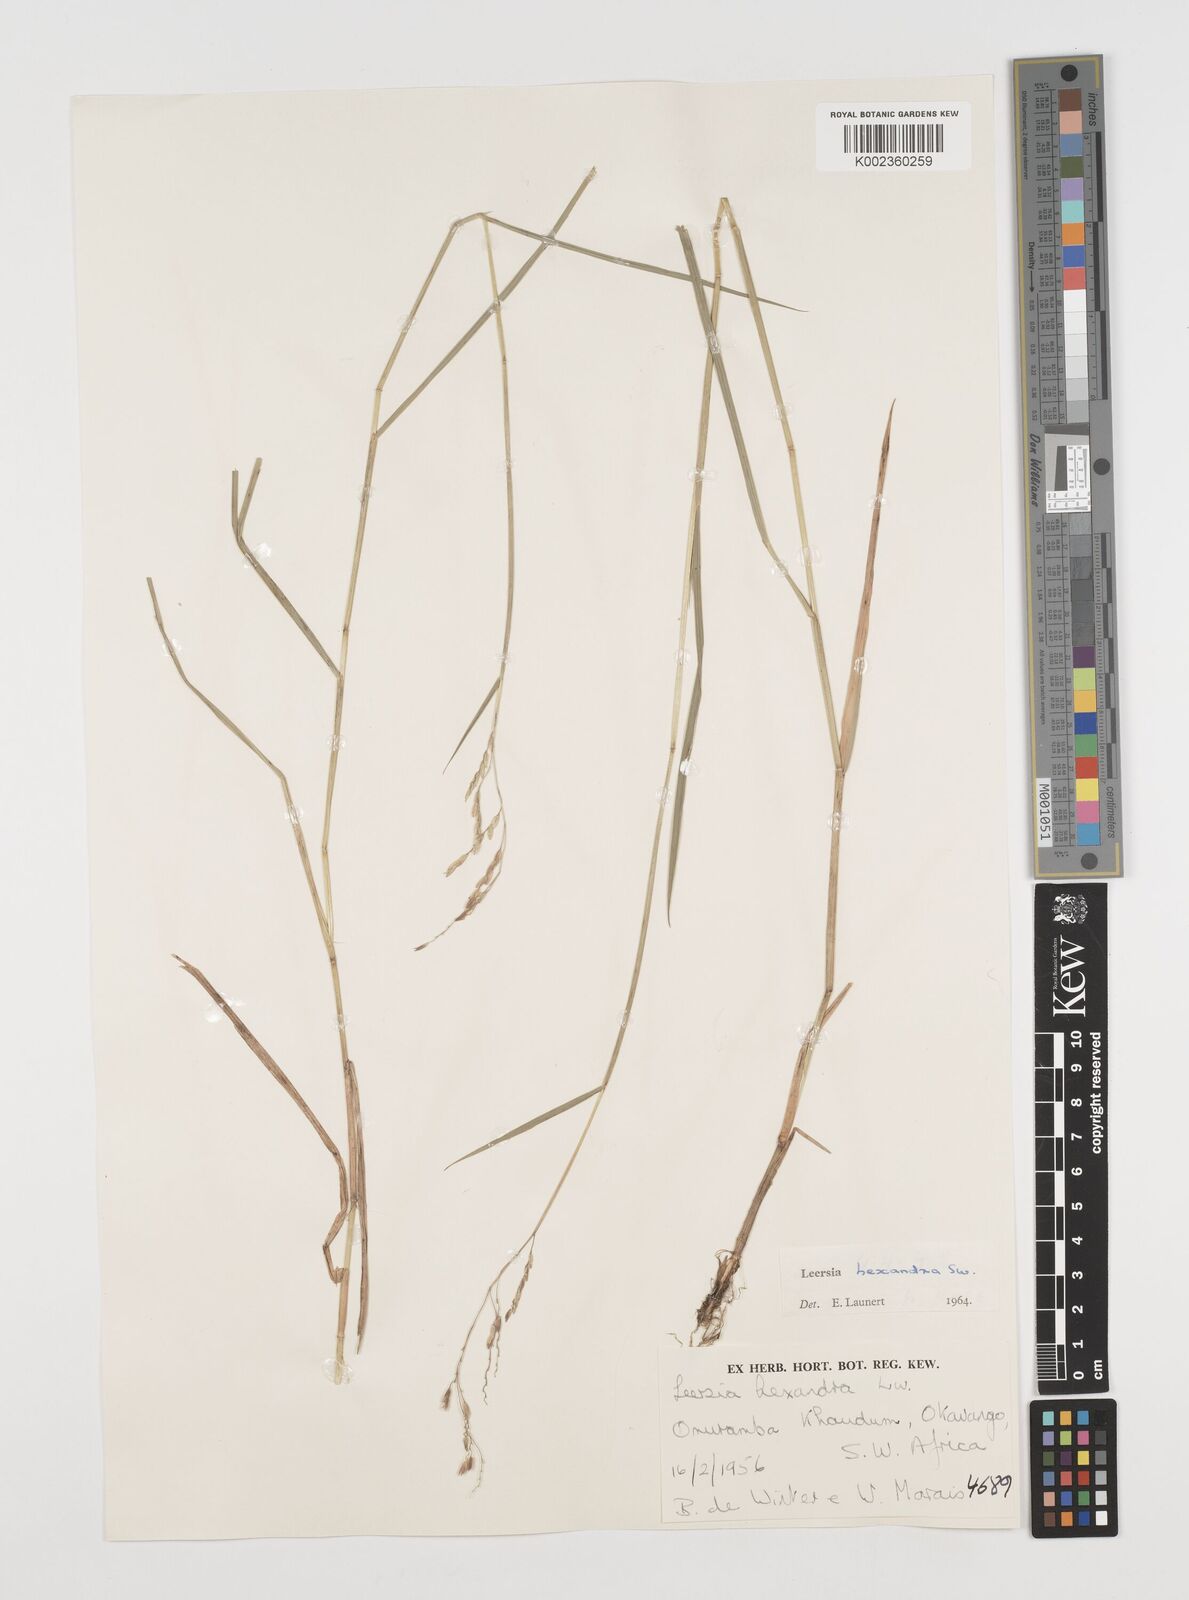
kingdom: Plantae
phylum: Tracheophyta
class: Liliopsida
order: Poales
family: Poaceae
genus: Leersia
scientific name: Leersia hexandra
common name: Southern cut grass
